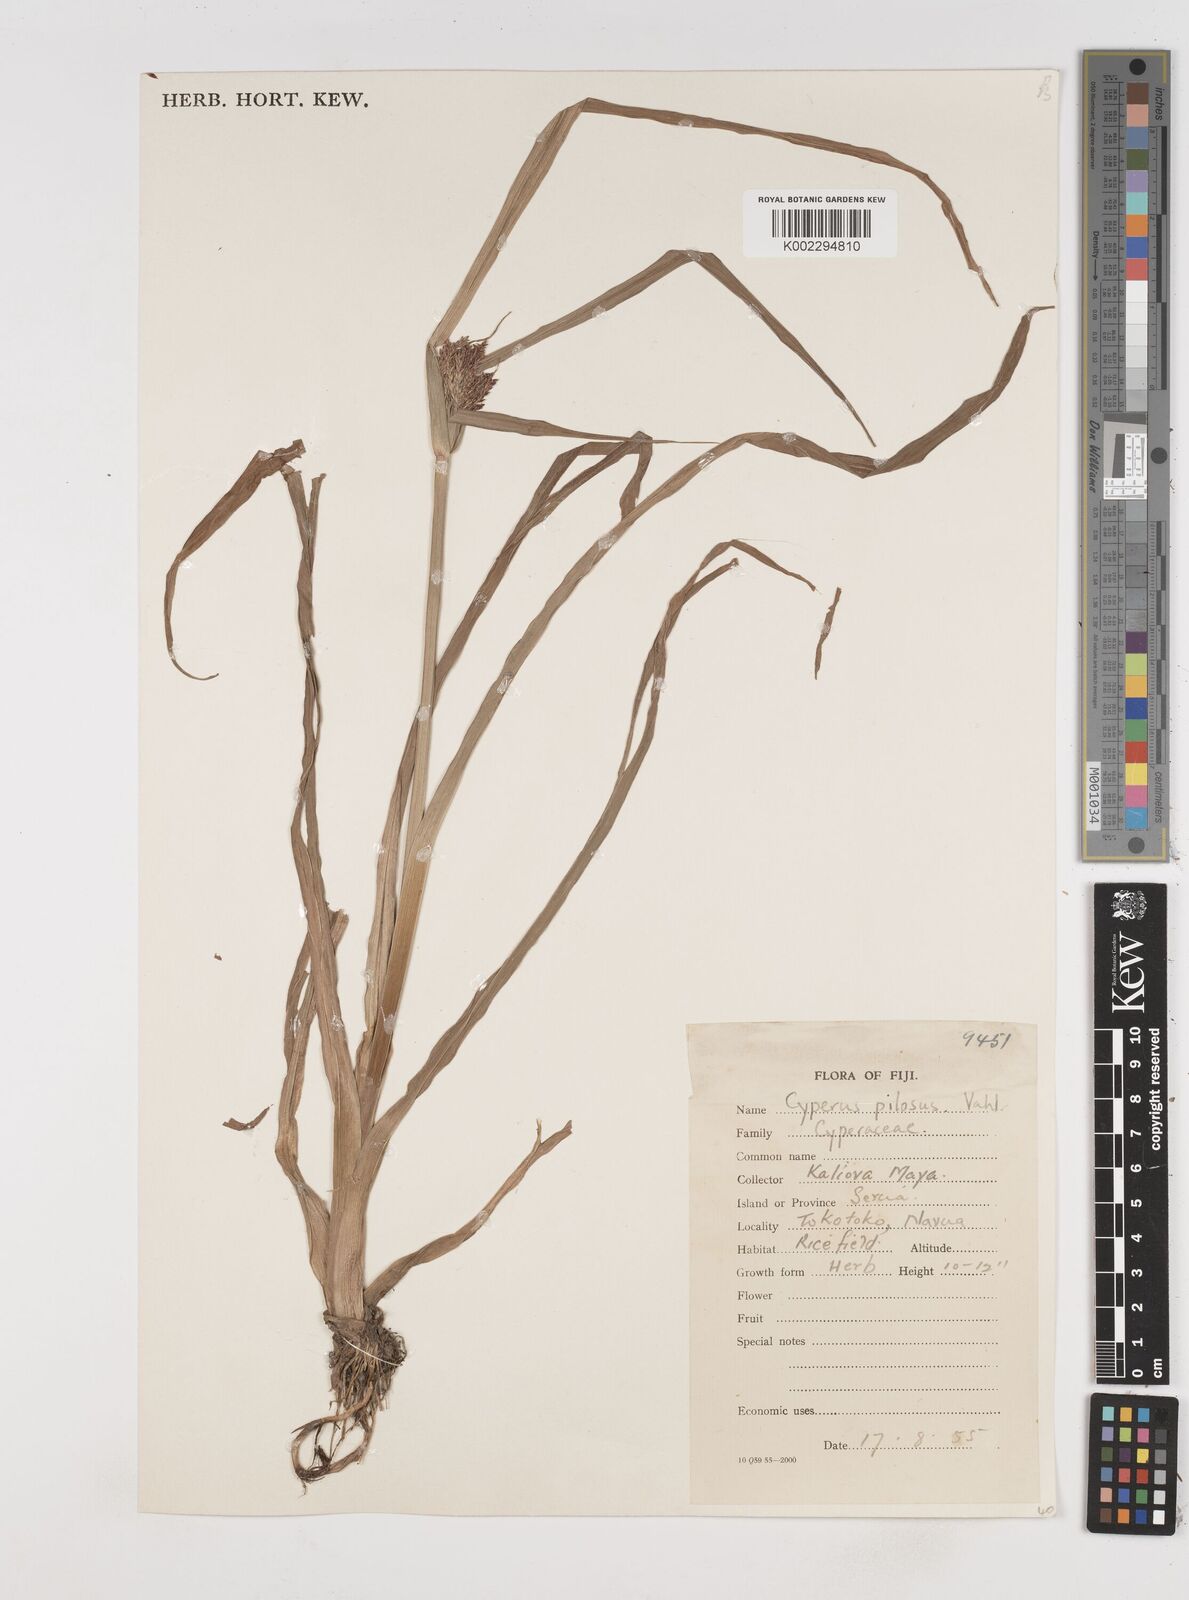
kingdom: Plantae
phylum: Tracheophyta
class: Liliopsida
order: Poales
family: Cyperaceae
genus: Cyperus
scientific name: Cyperus pilosus
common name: Fuzzy flatsedge
